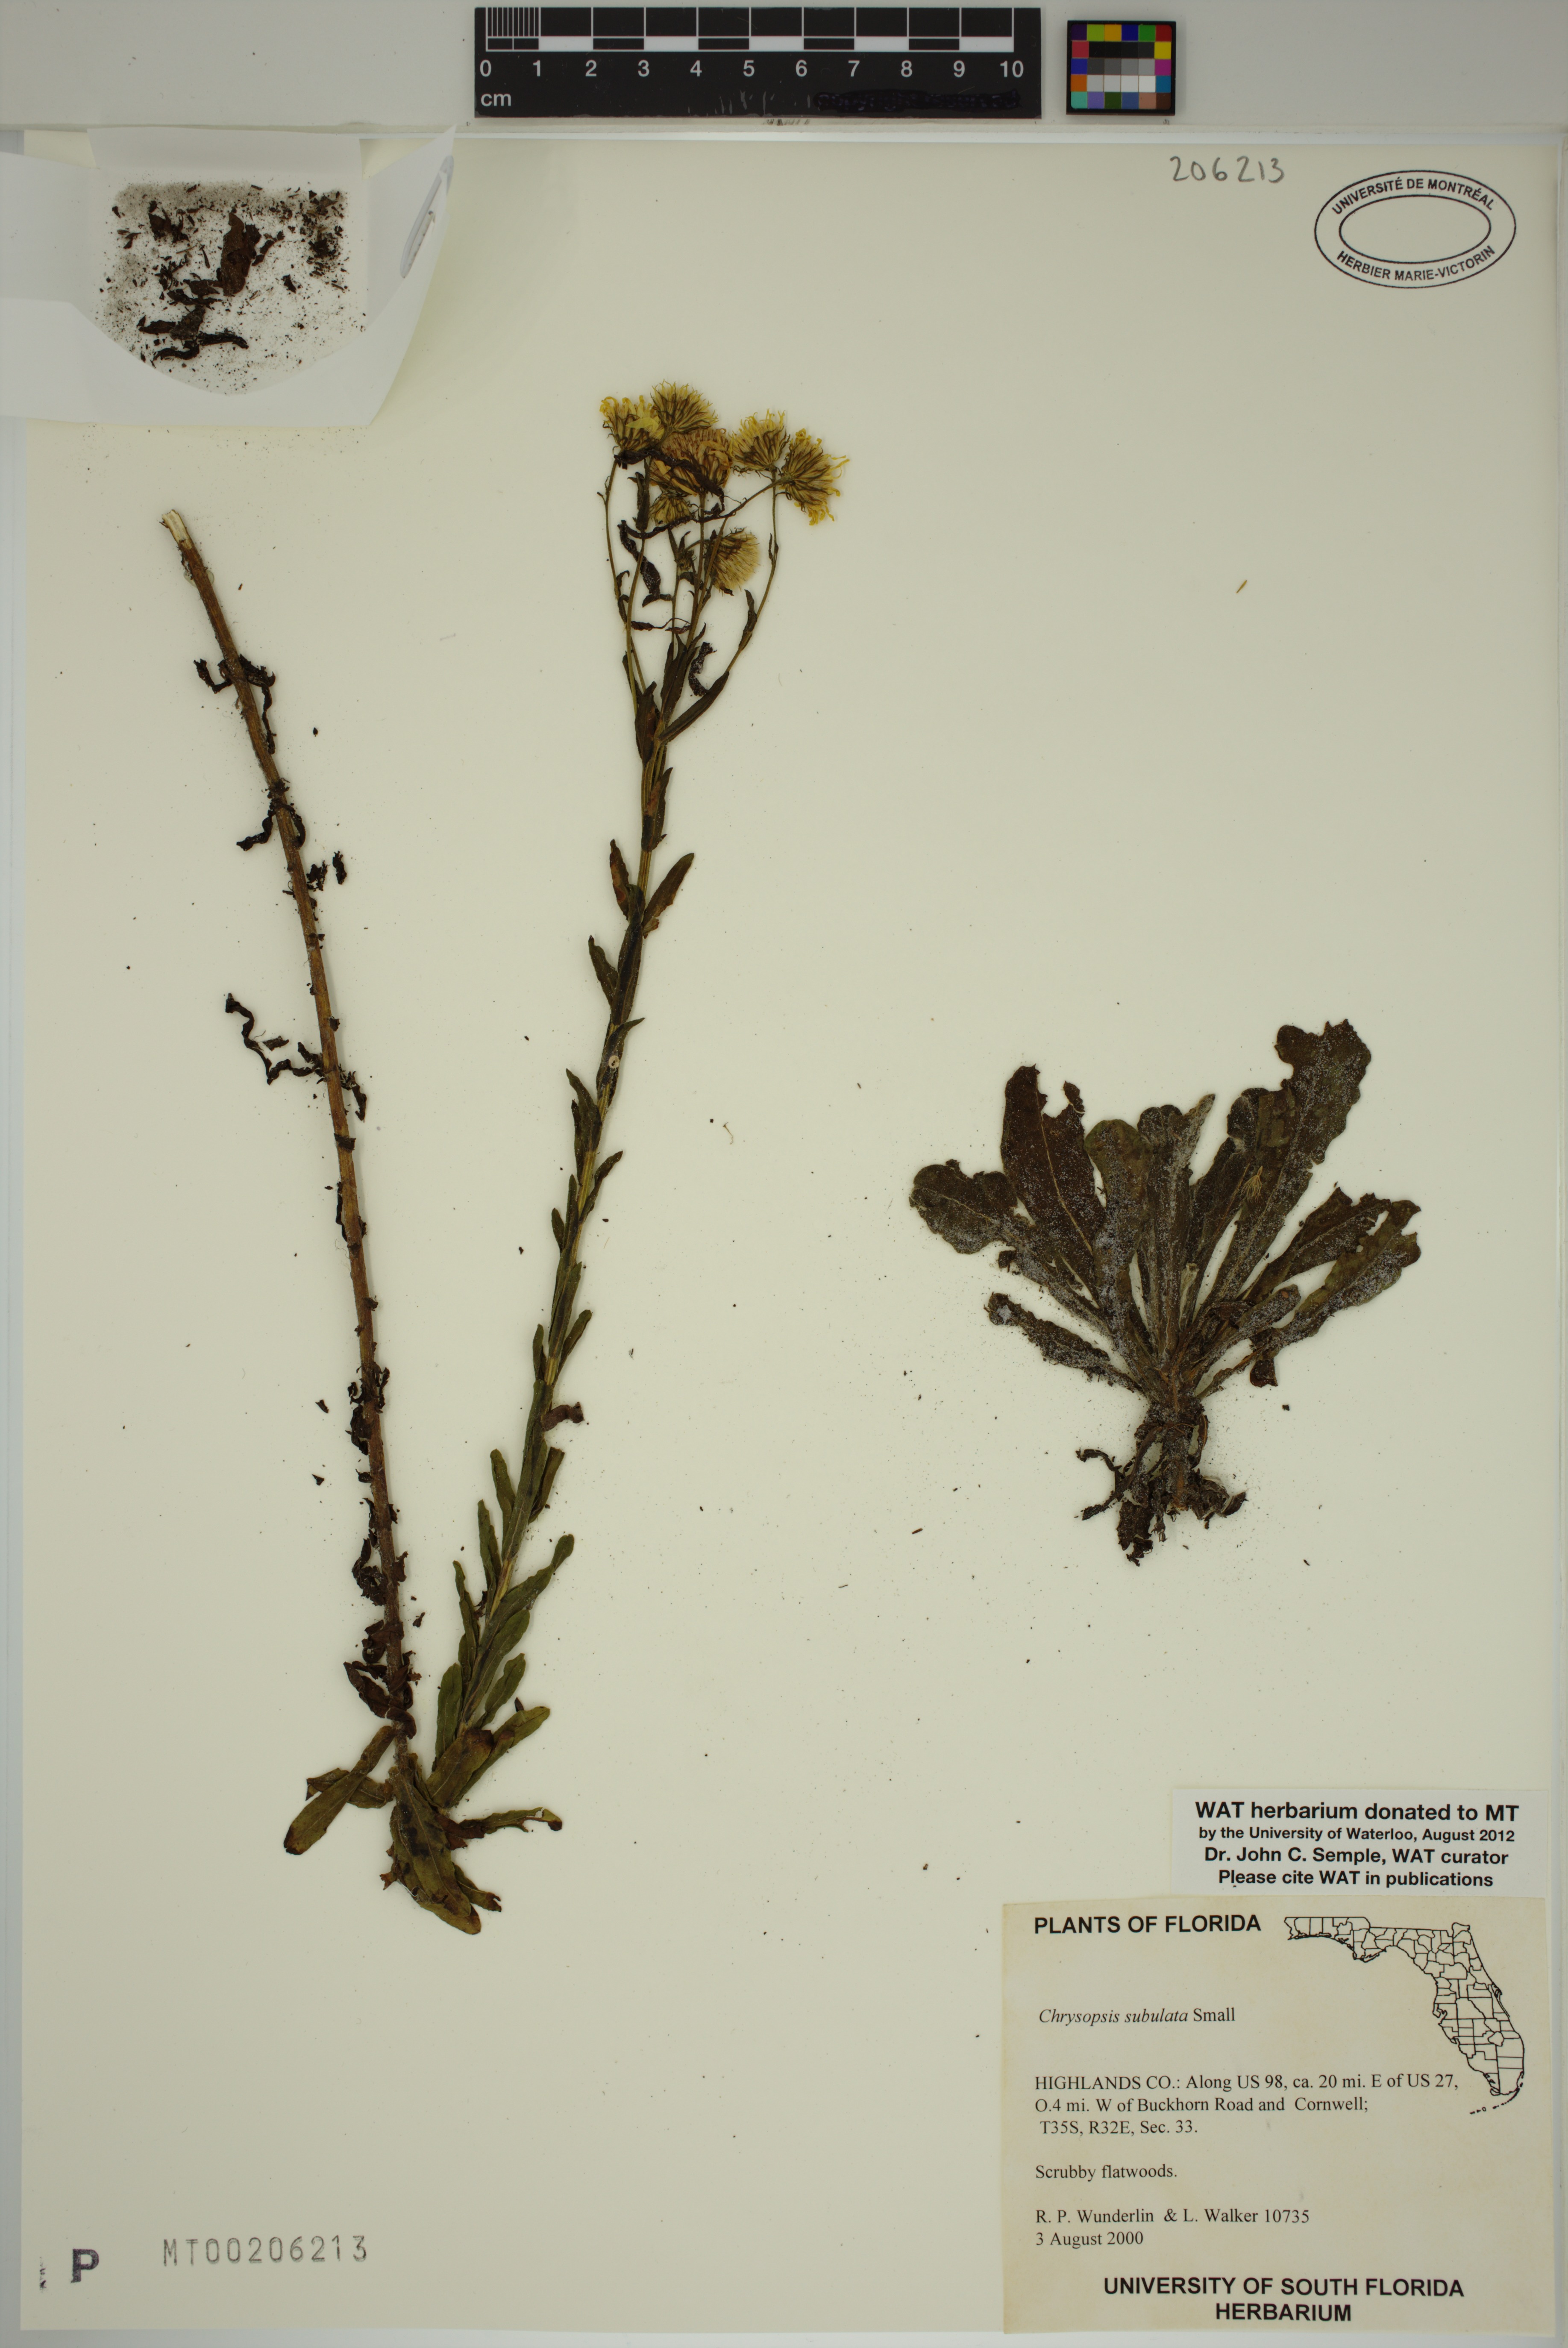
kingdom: Plantae
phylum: Tracheophyta
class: Magnoliopsida
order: Asterales
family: Asteraceae
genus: Chrysopsis
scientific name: Chrysopsis subulata
